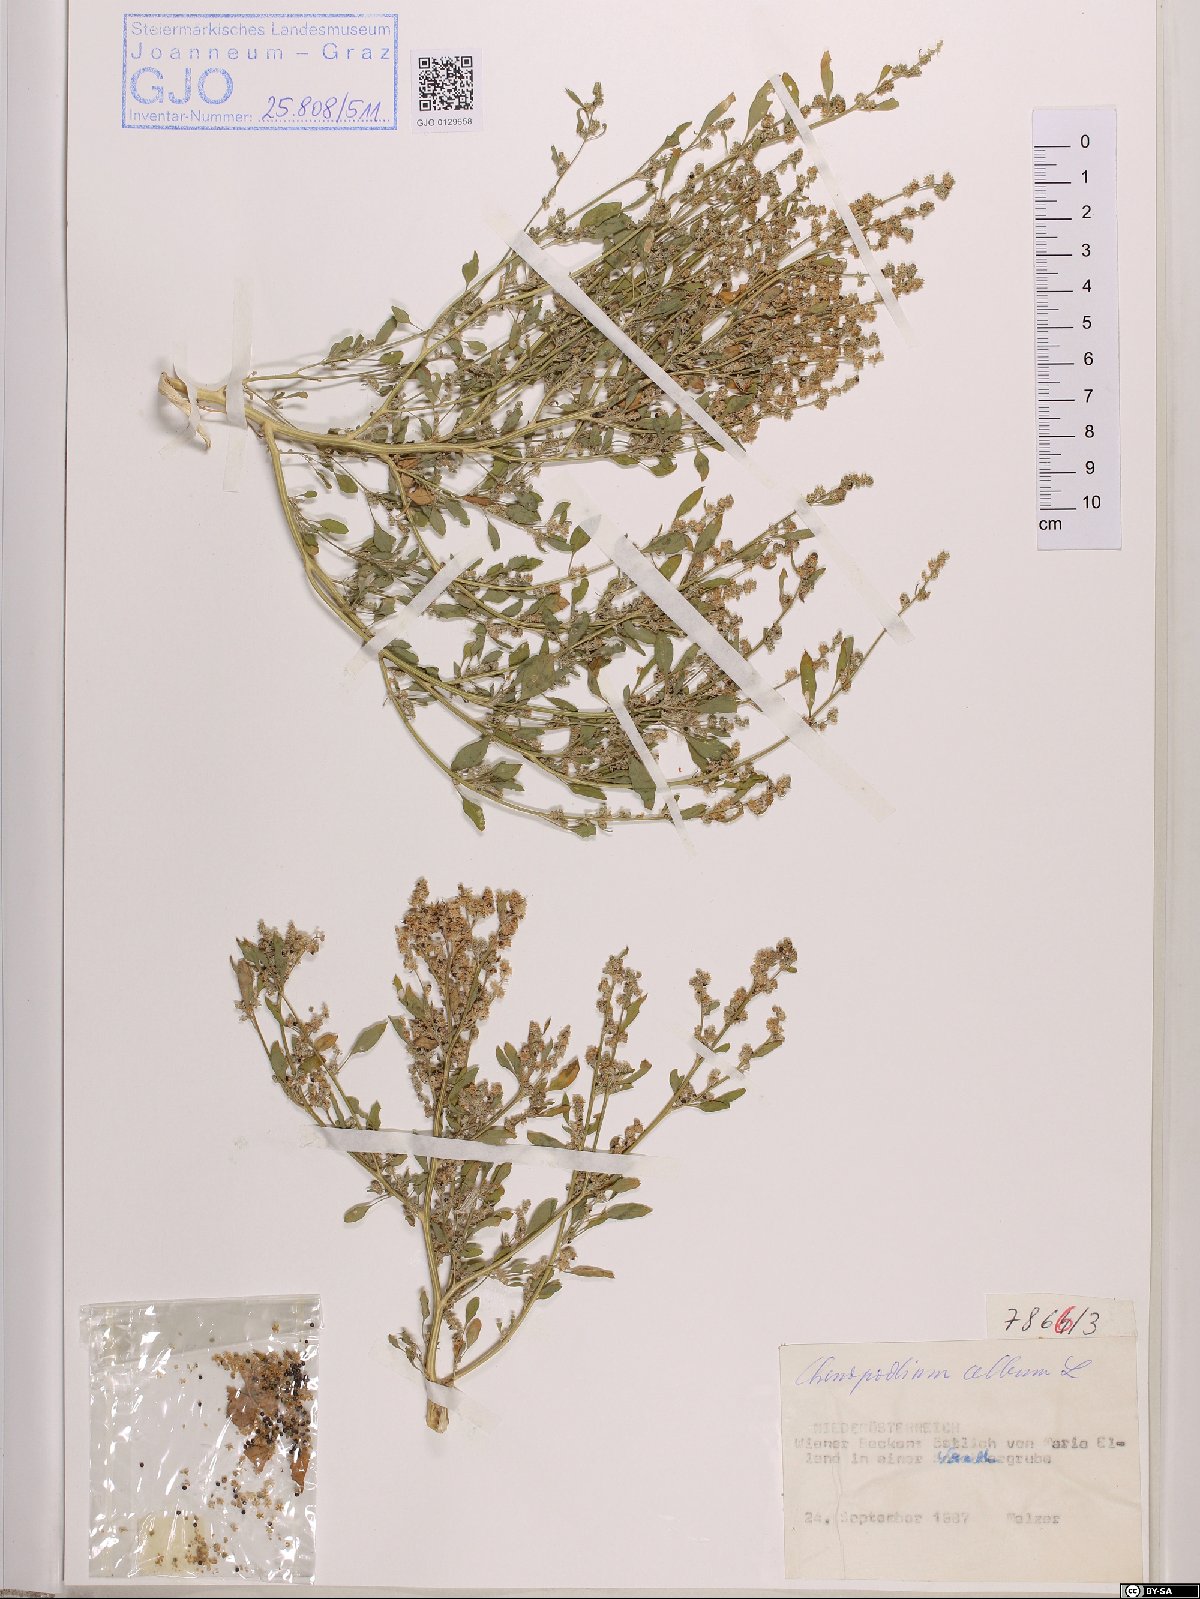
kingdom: Plantae
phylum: Tracheophyta
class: Magnoliopsida
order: Caryophyllales
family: Amaranthaceae
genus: Chenopodium
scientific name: Chenopodium album
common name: Fat-hen
